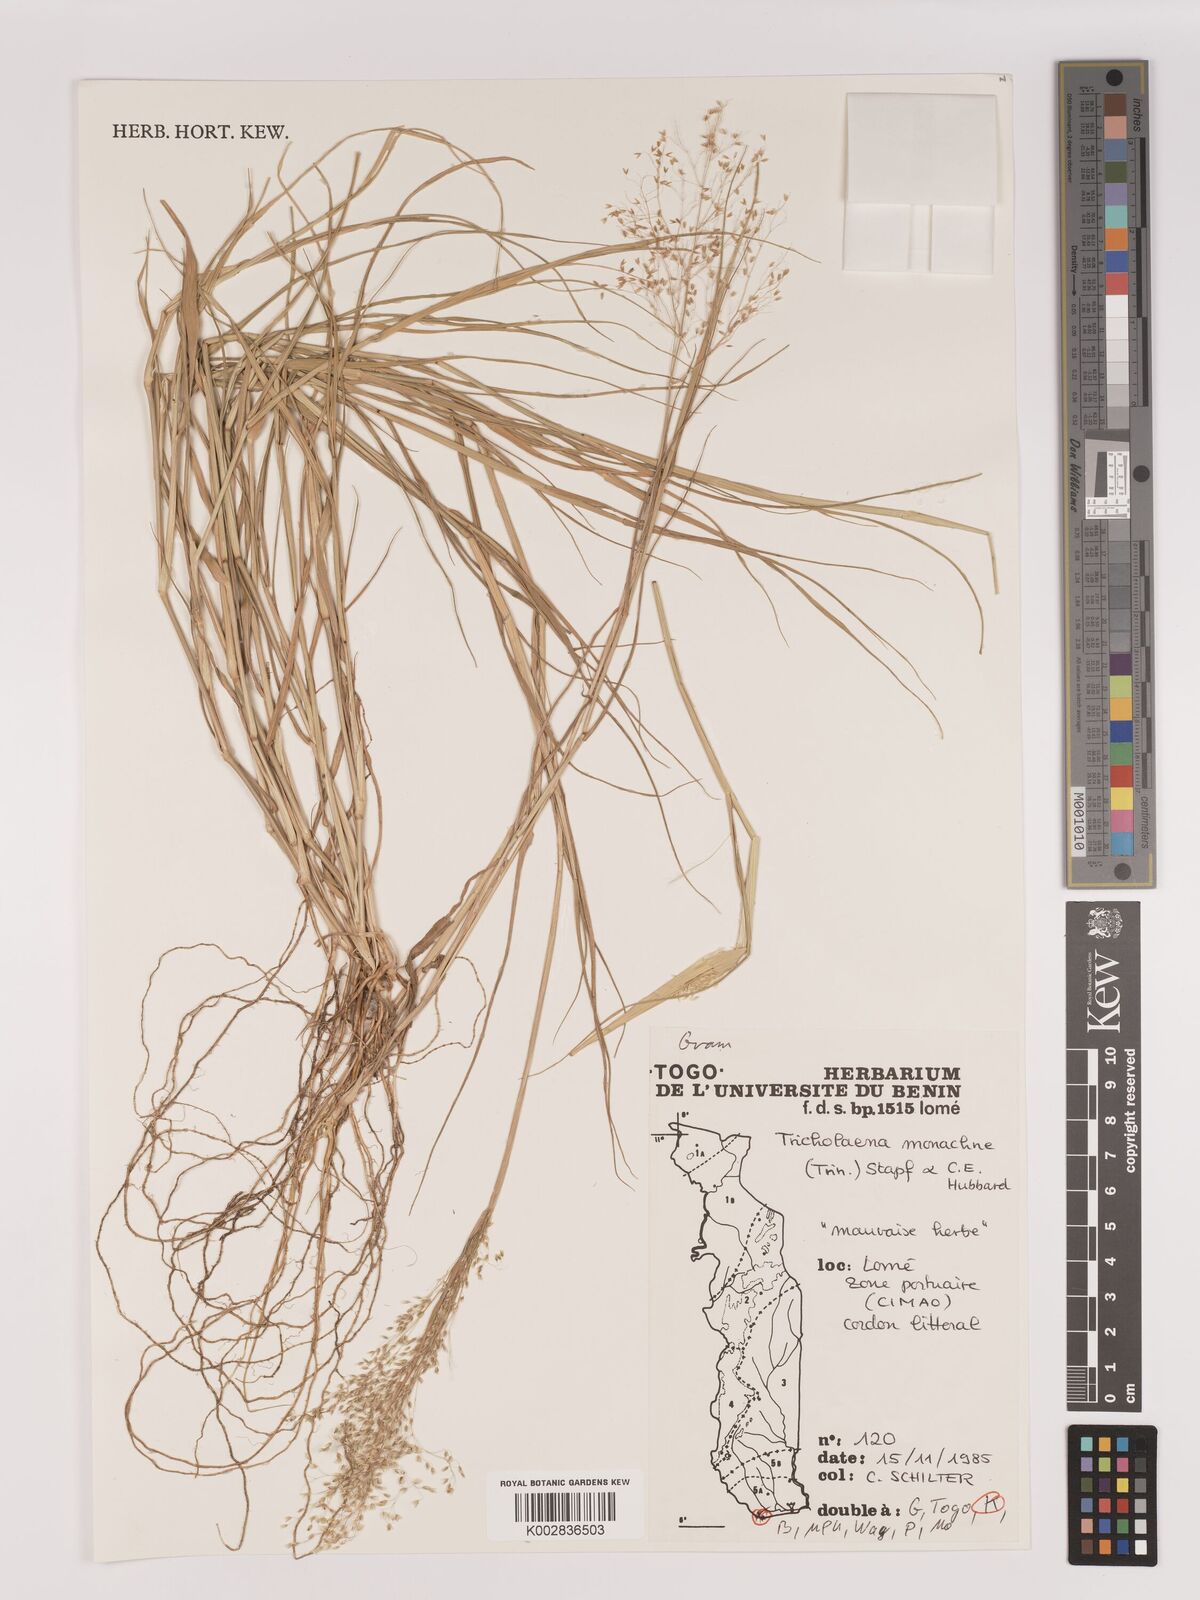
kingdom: Plantae
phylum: Tracheophyta
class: Liliopsida
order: Poales
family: Poaceae
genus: Tricholaena
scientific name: Tricholaena monachne
